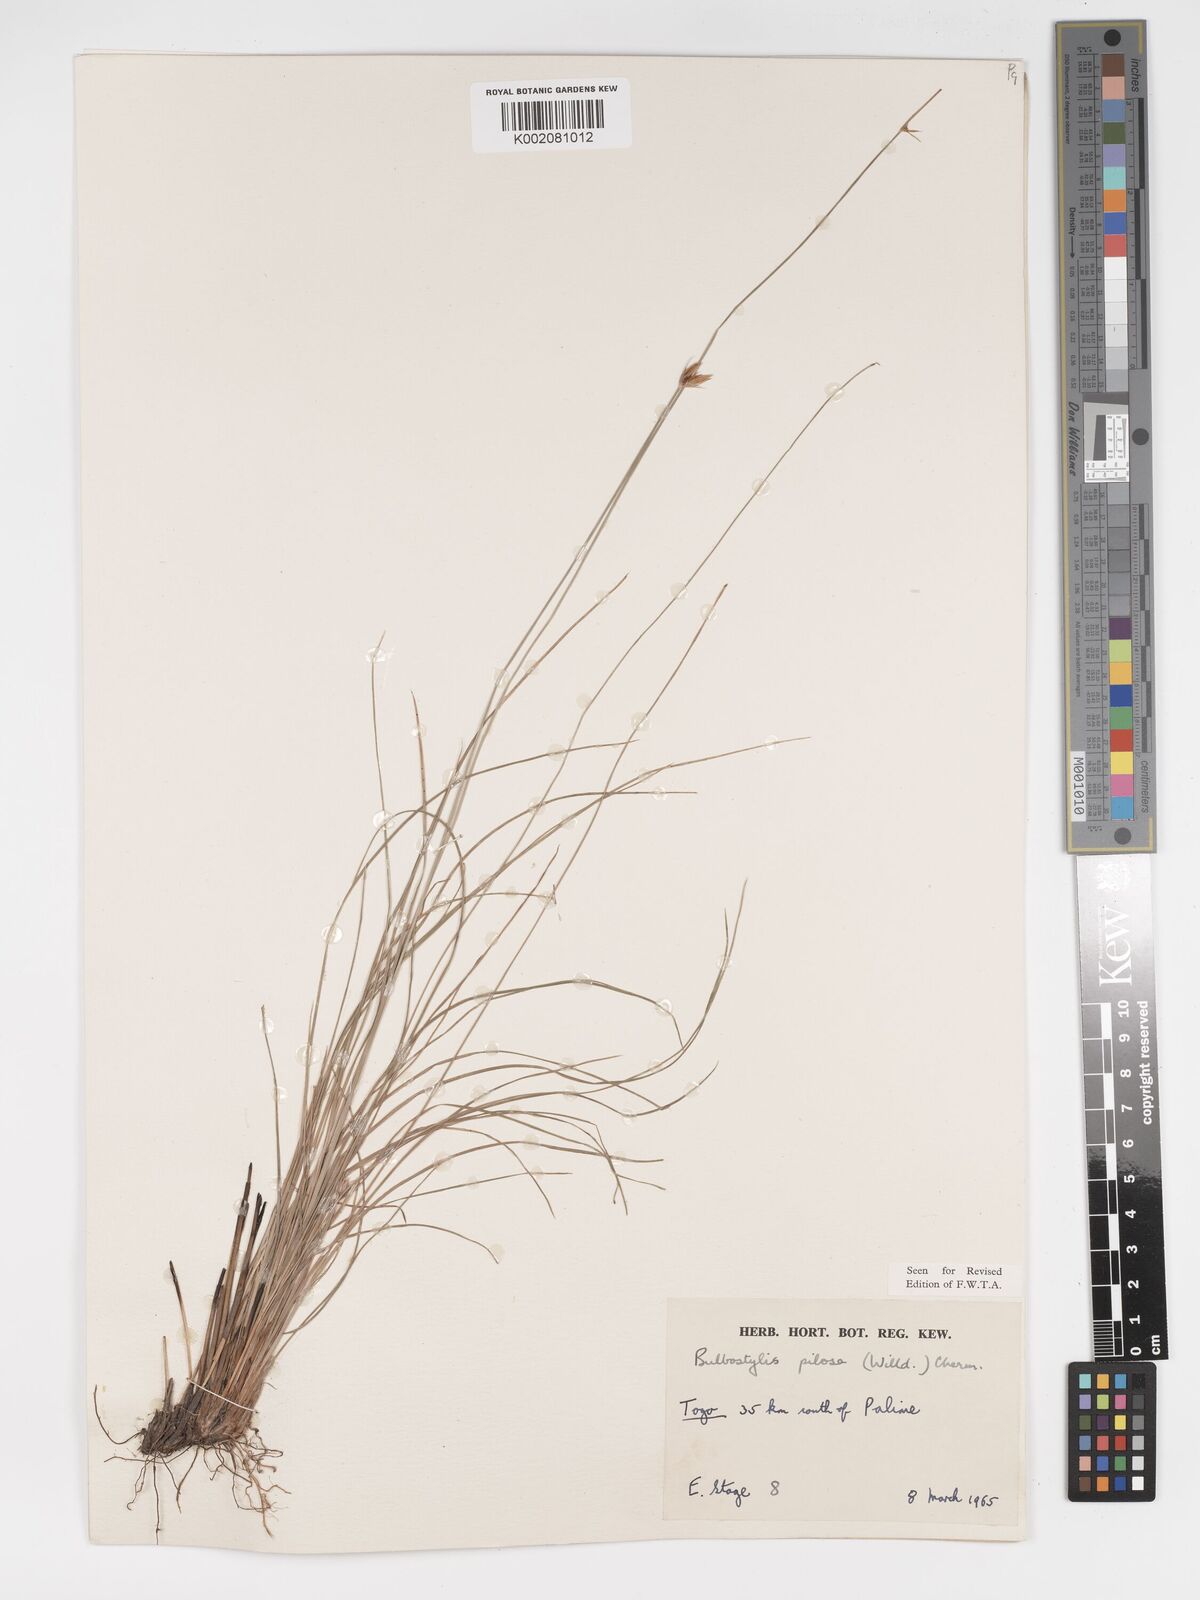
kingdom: Plantae
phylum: Tracheophyta
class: Liliopsida
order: Poales
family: Cyperaceae
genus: Bulbostylis
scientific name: Bulbostylis pilosa
